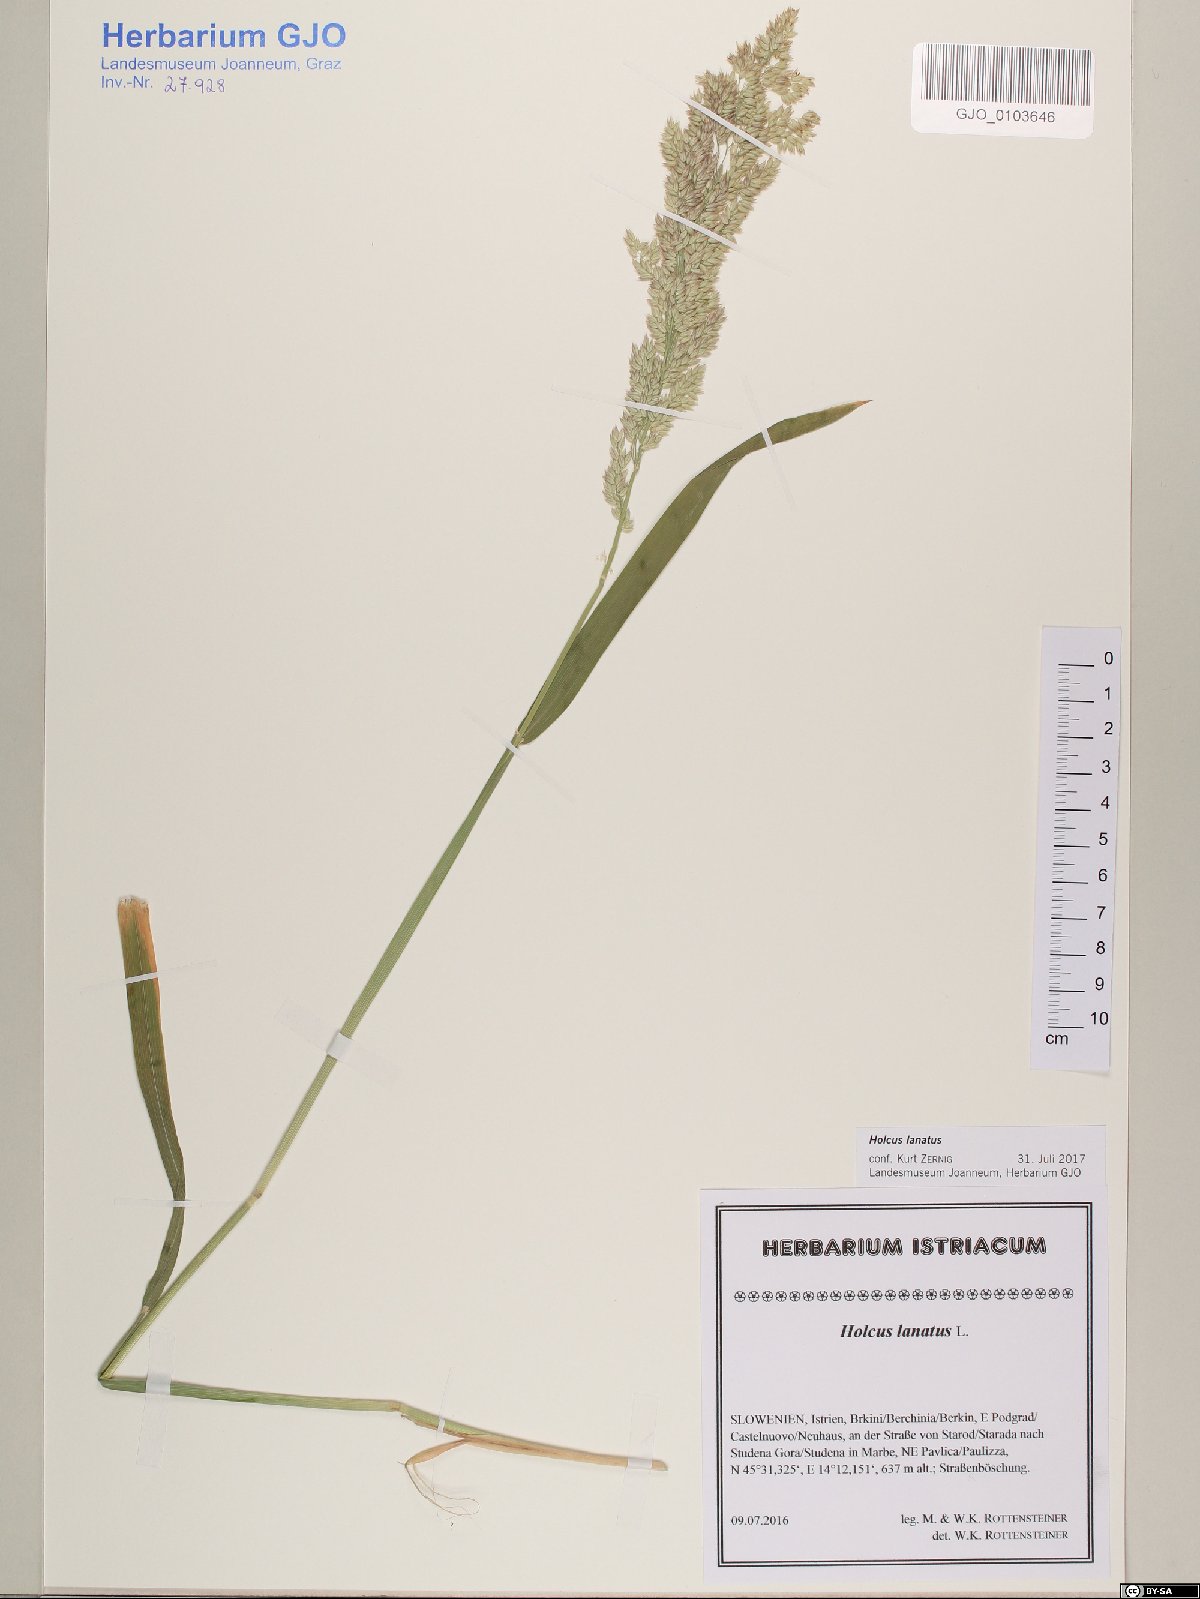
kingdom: Plantae
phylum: Tracheophyta
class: Liliopsida
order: Poales
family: Poaceae
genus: Holcus
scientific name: Holcus lanatus
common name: Yorkshire-fog
